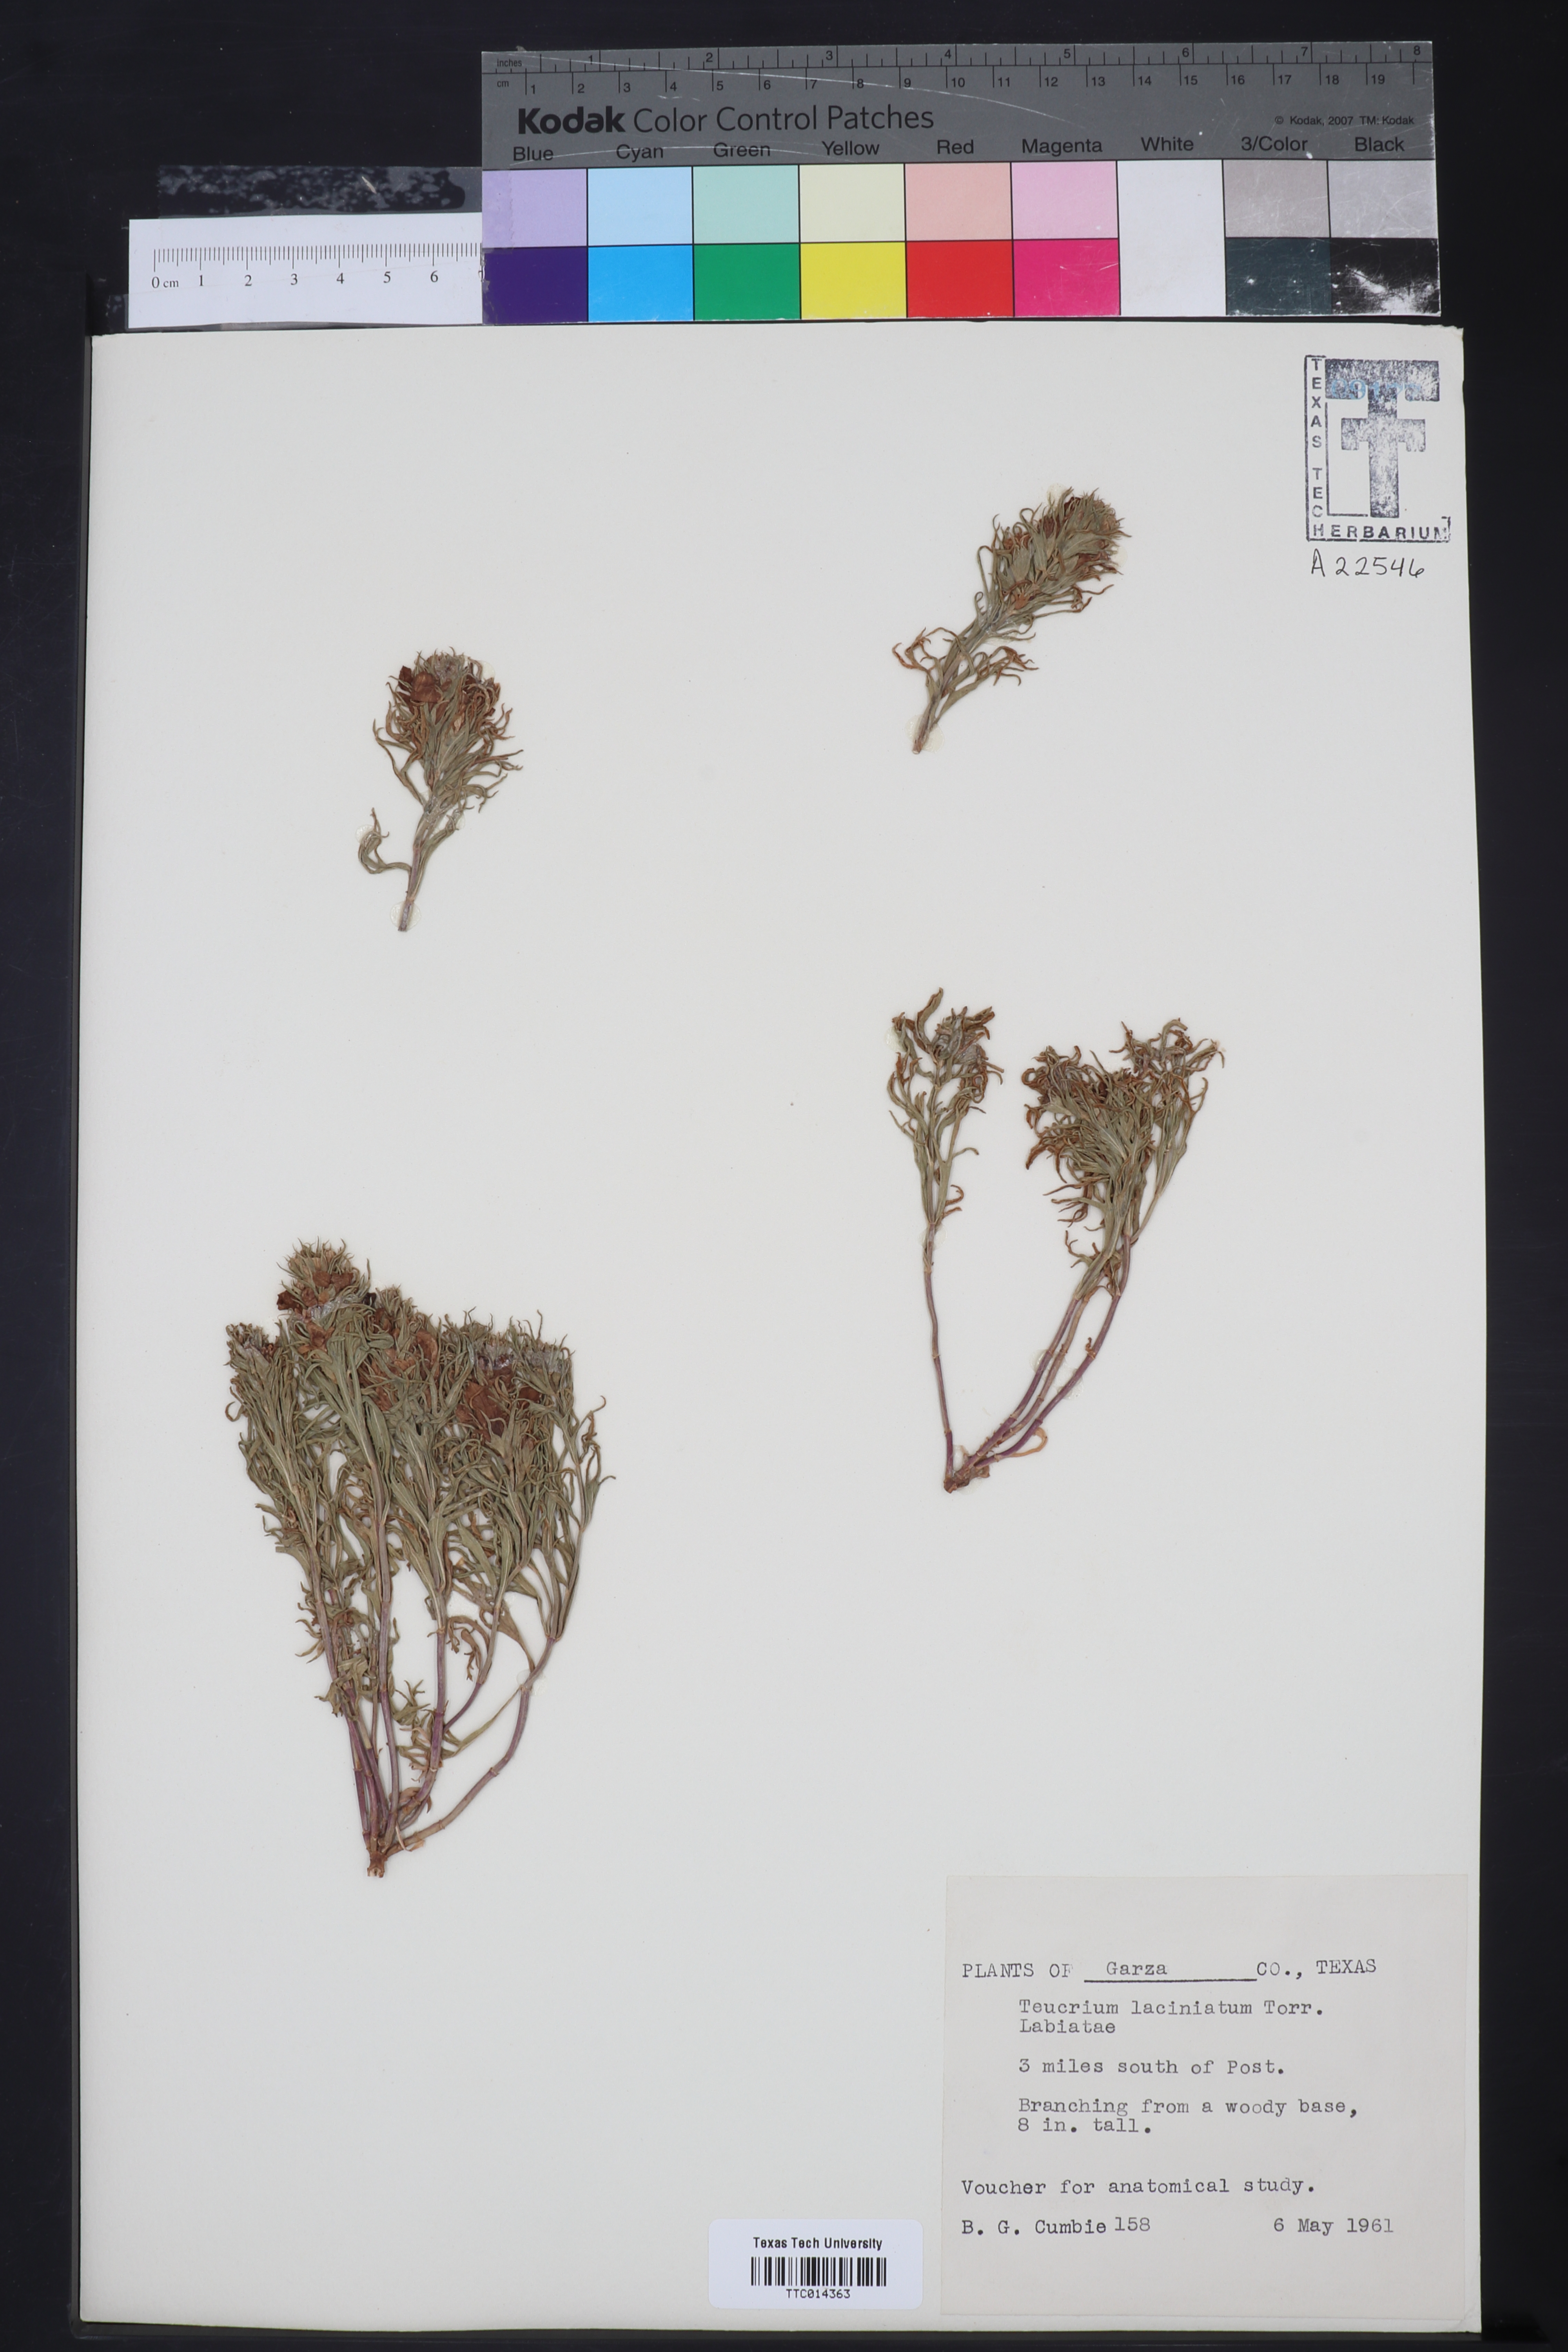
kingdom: Plantae
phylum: Tracheophyta
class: Magnoliopsida
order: Lamiales
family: Lamiaceae
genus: Teucrium
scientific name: Teucrium laciniatum
